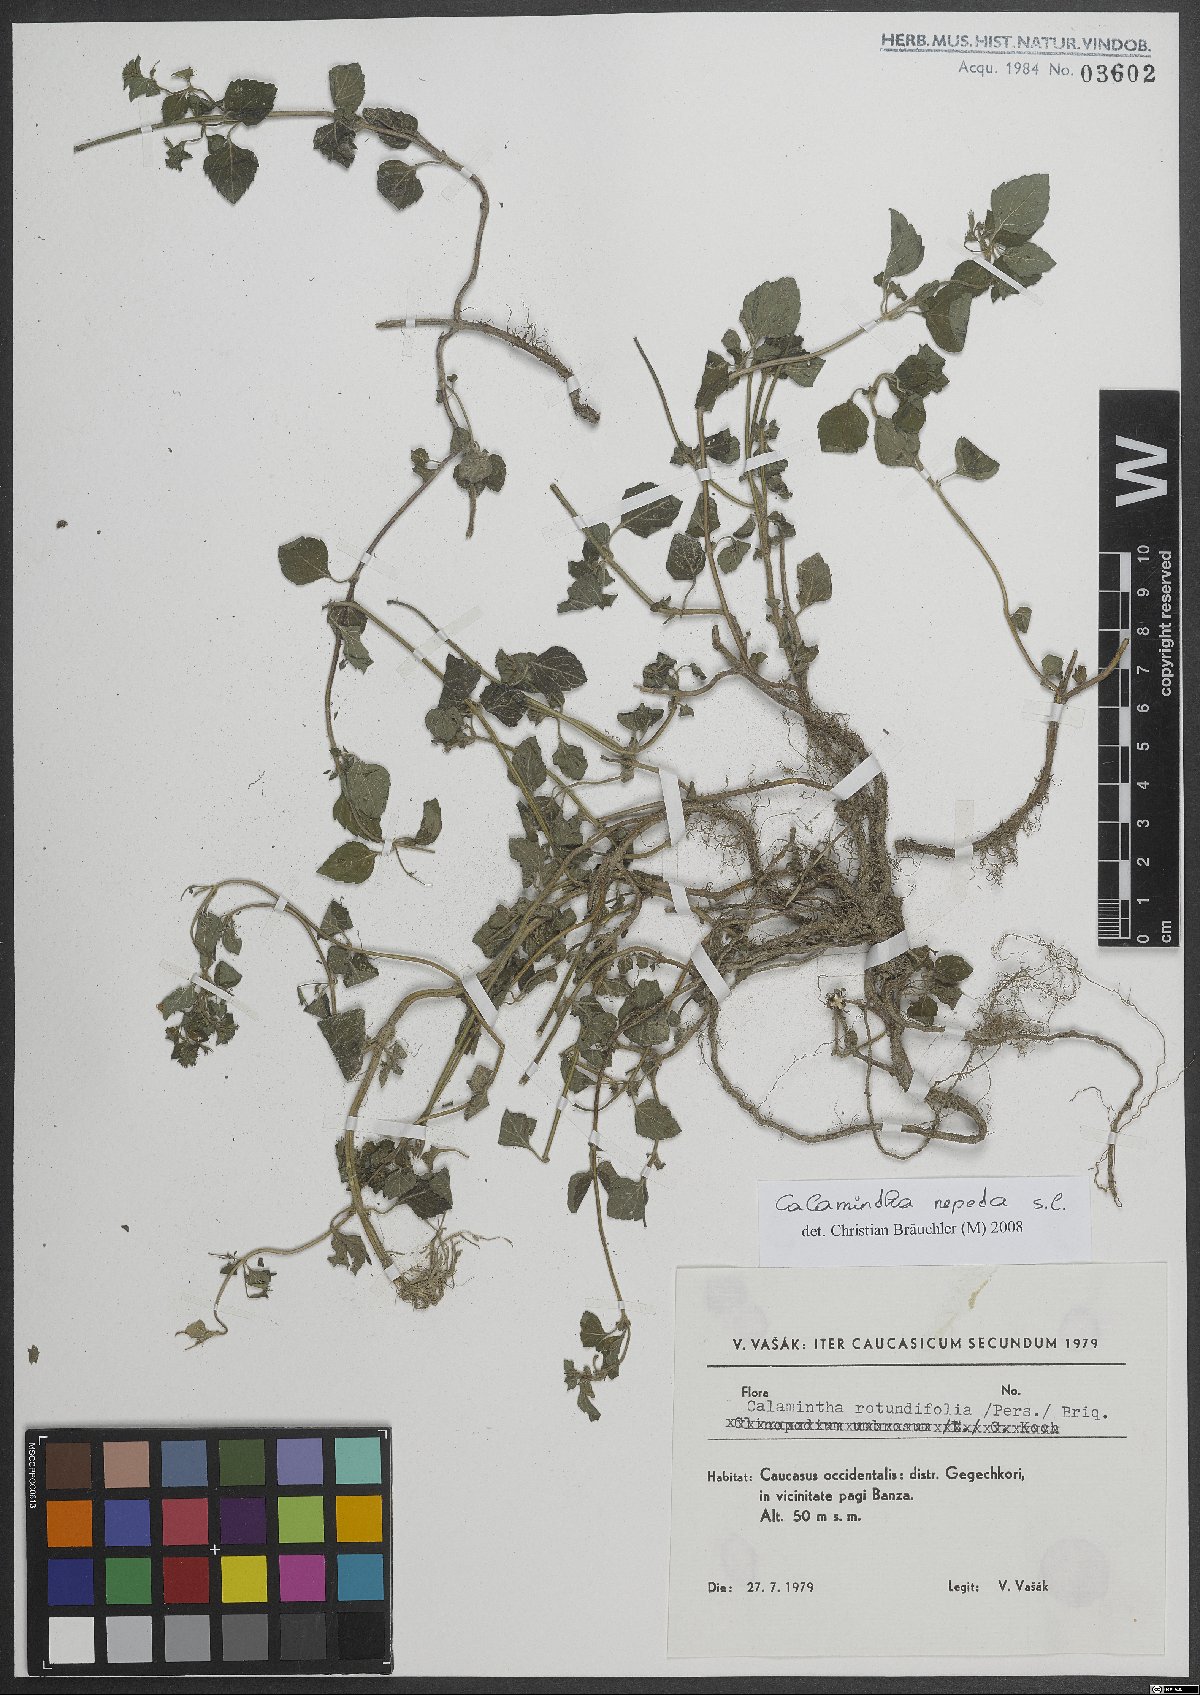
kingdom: Plantae
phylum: Tracheophyta
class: Magnoliopsida
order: Lamiales
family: Lamiaceae
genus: Clinopodium
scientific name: Clinopodium nepeta
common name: Lesser calamint
